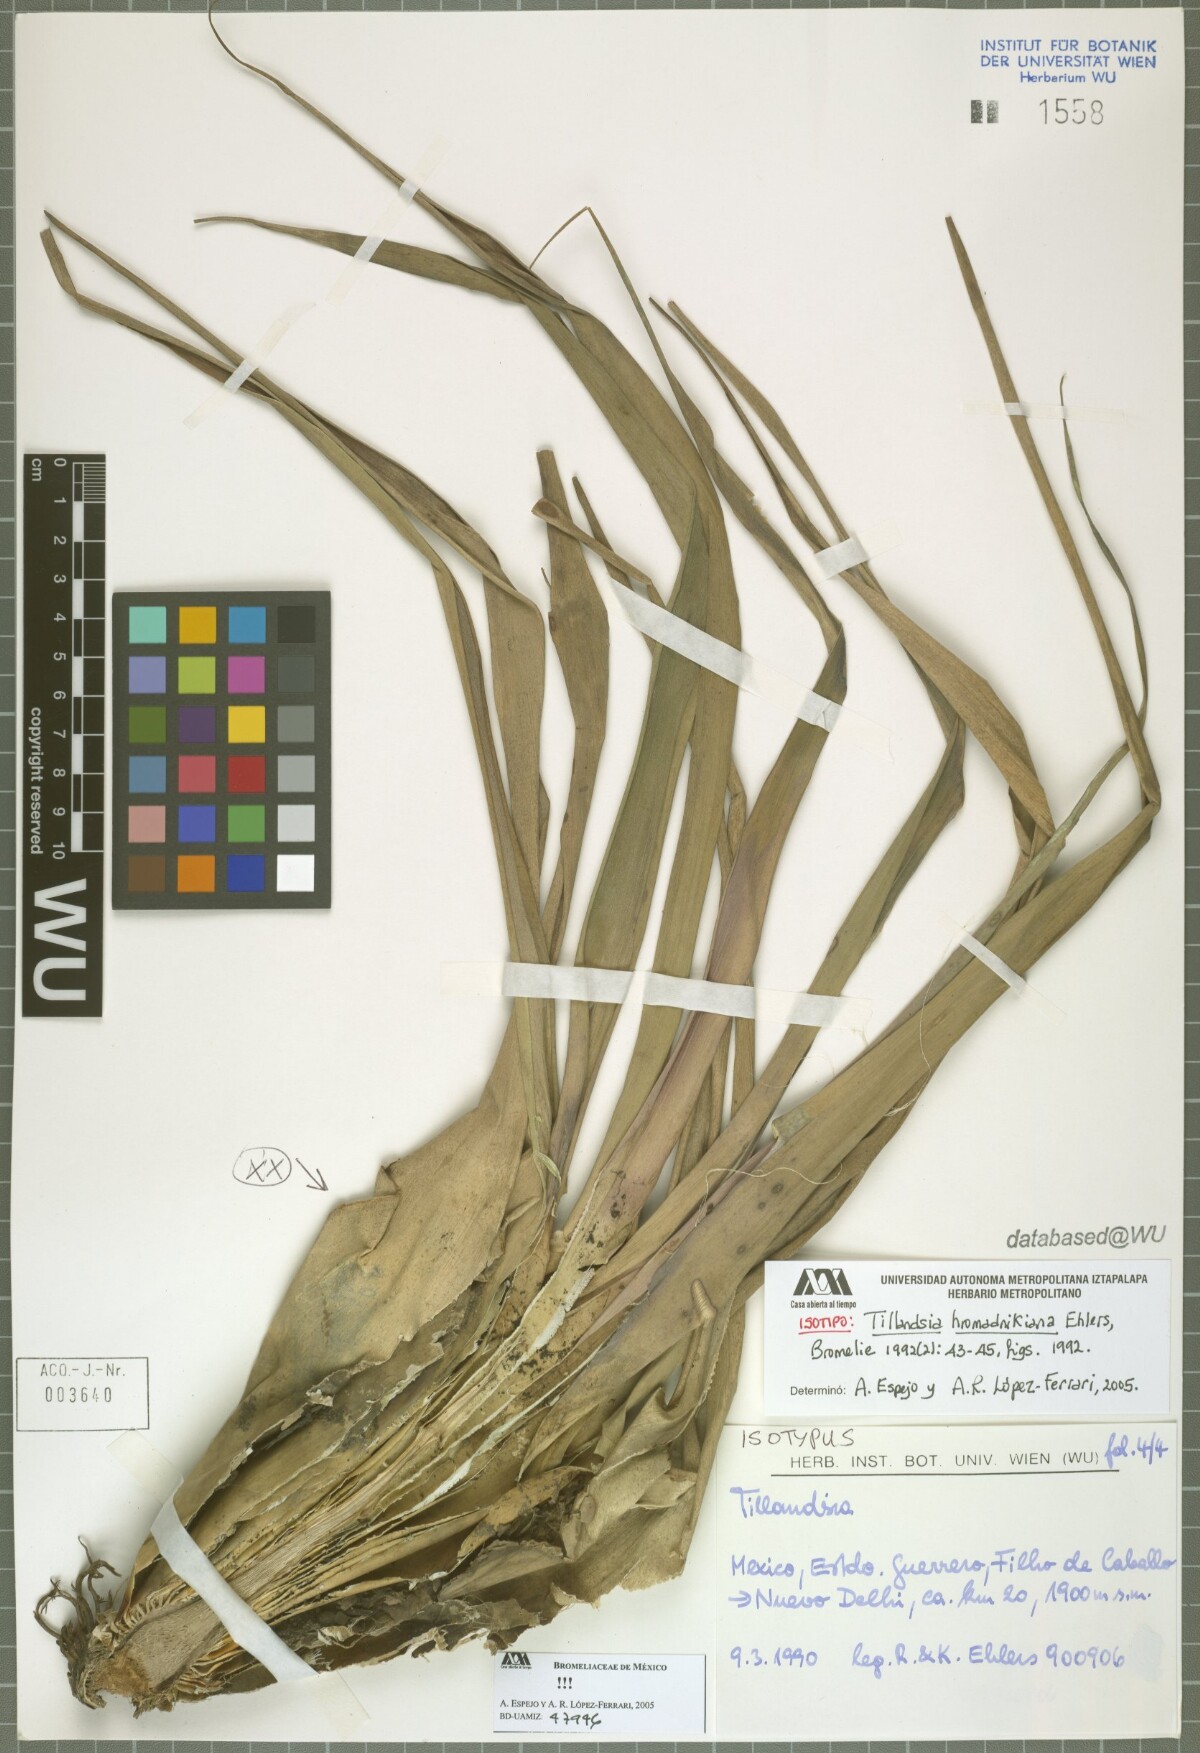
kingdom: Plantae
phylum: Tracheophyta
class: Liliopsida
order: Poales
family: Bromeliaceae
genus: Tillandsia
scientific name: Tillandsia prodigiosa
